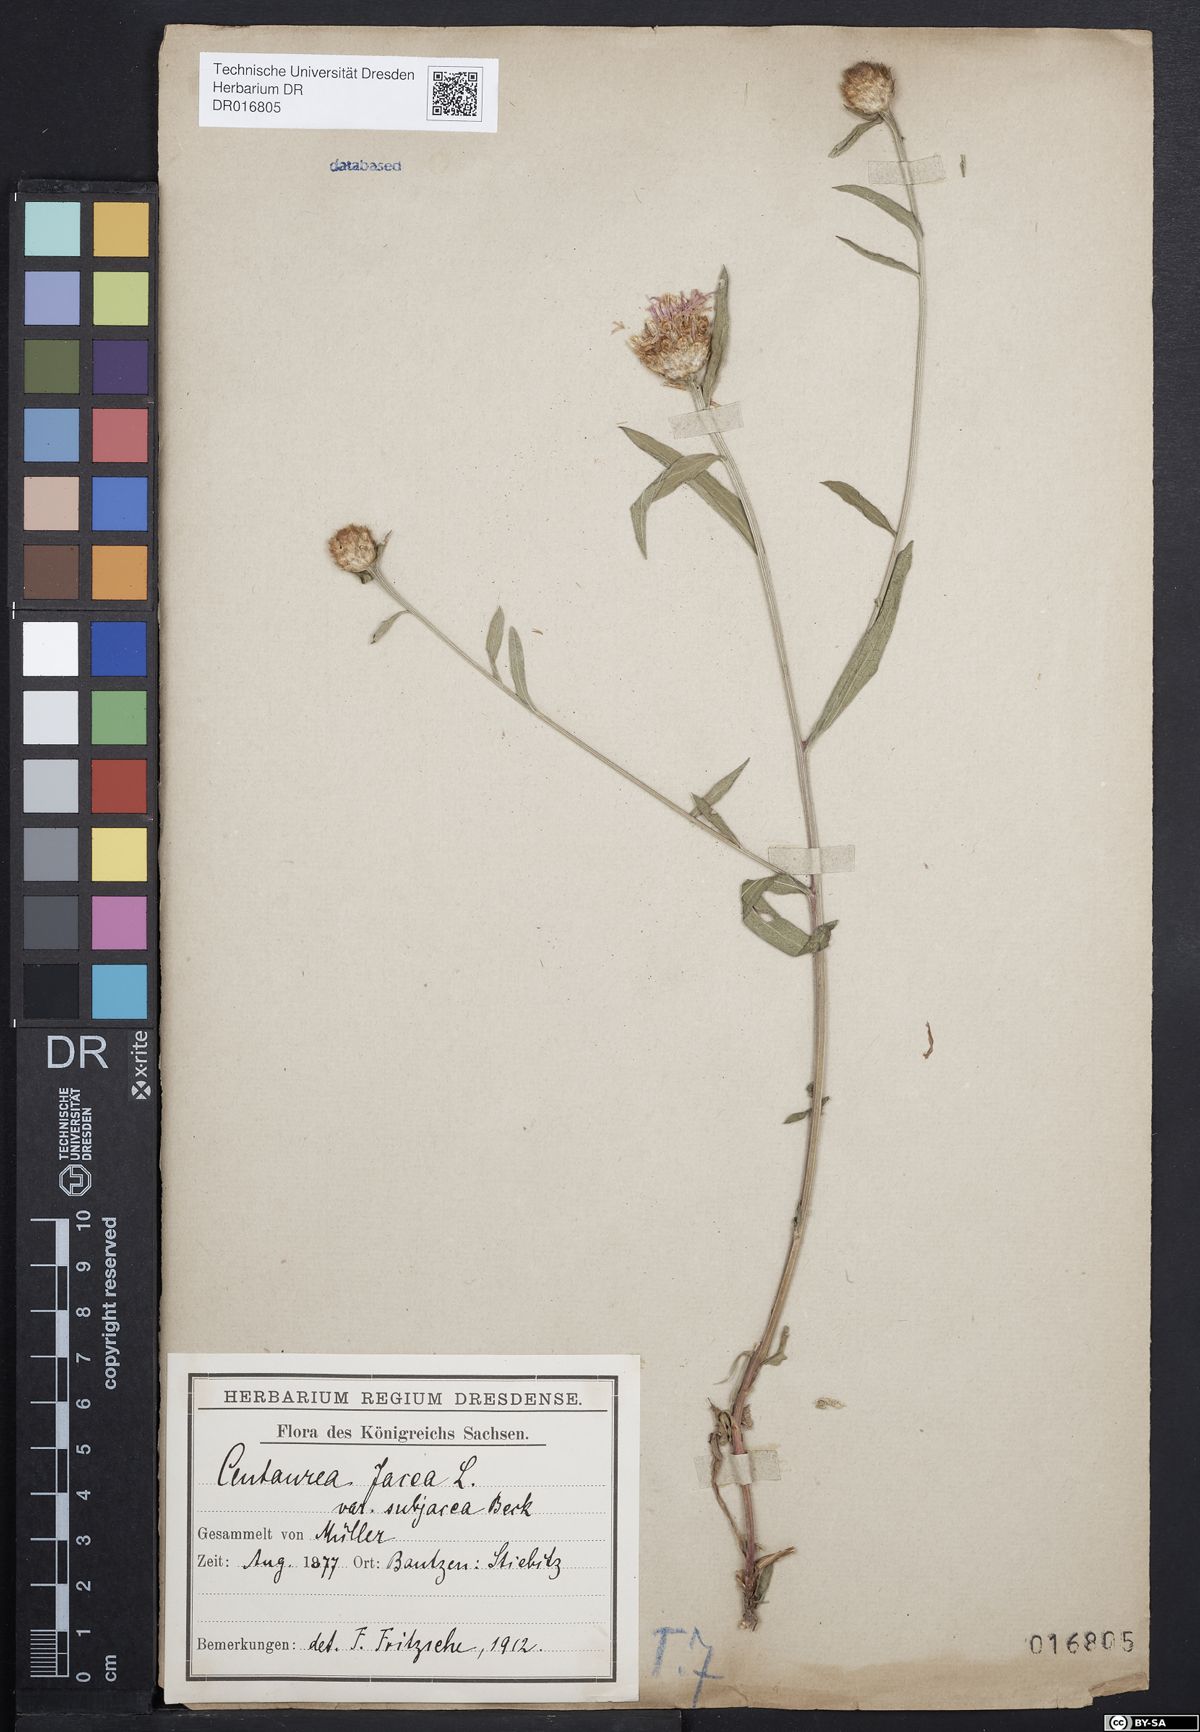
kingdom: Plantae
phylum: Tracheophyta
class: Magnoliopsida
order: Asterales
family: Asteraceae
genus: Centaurea
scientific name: Centaurea preissmannii
